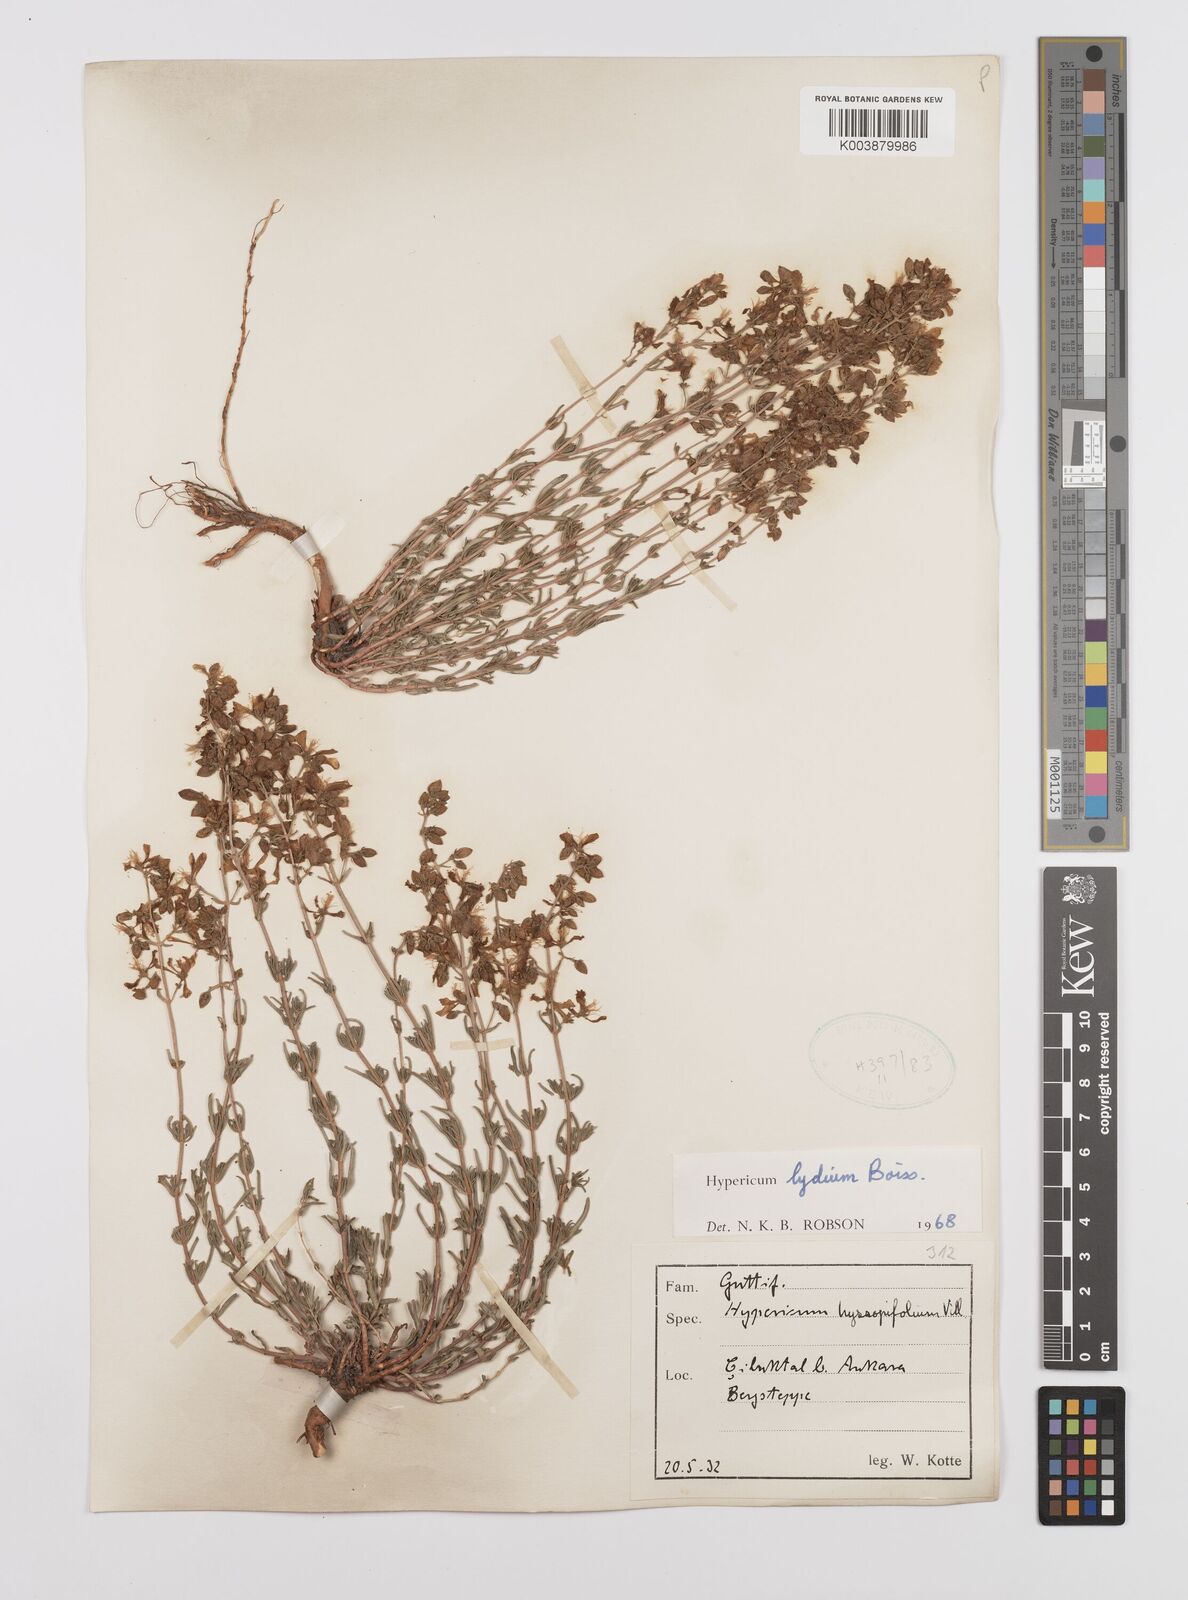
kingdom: Plantae
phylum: Tracheophyta
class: Magnoliopsida
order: Malpighiales
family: Hypericaceae
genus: Hypericum
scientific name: Hypericum lydium
